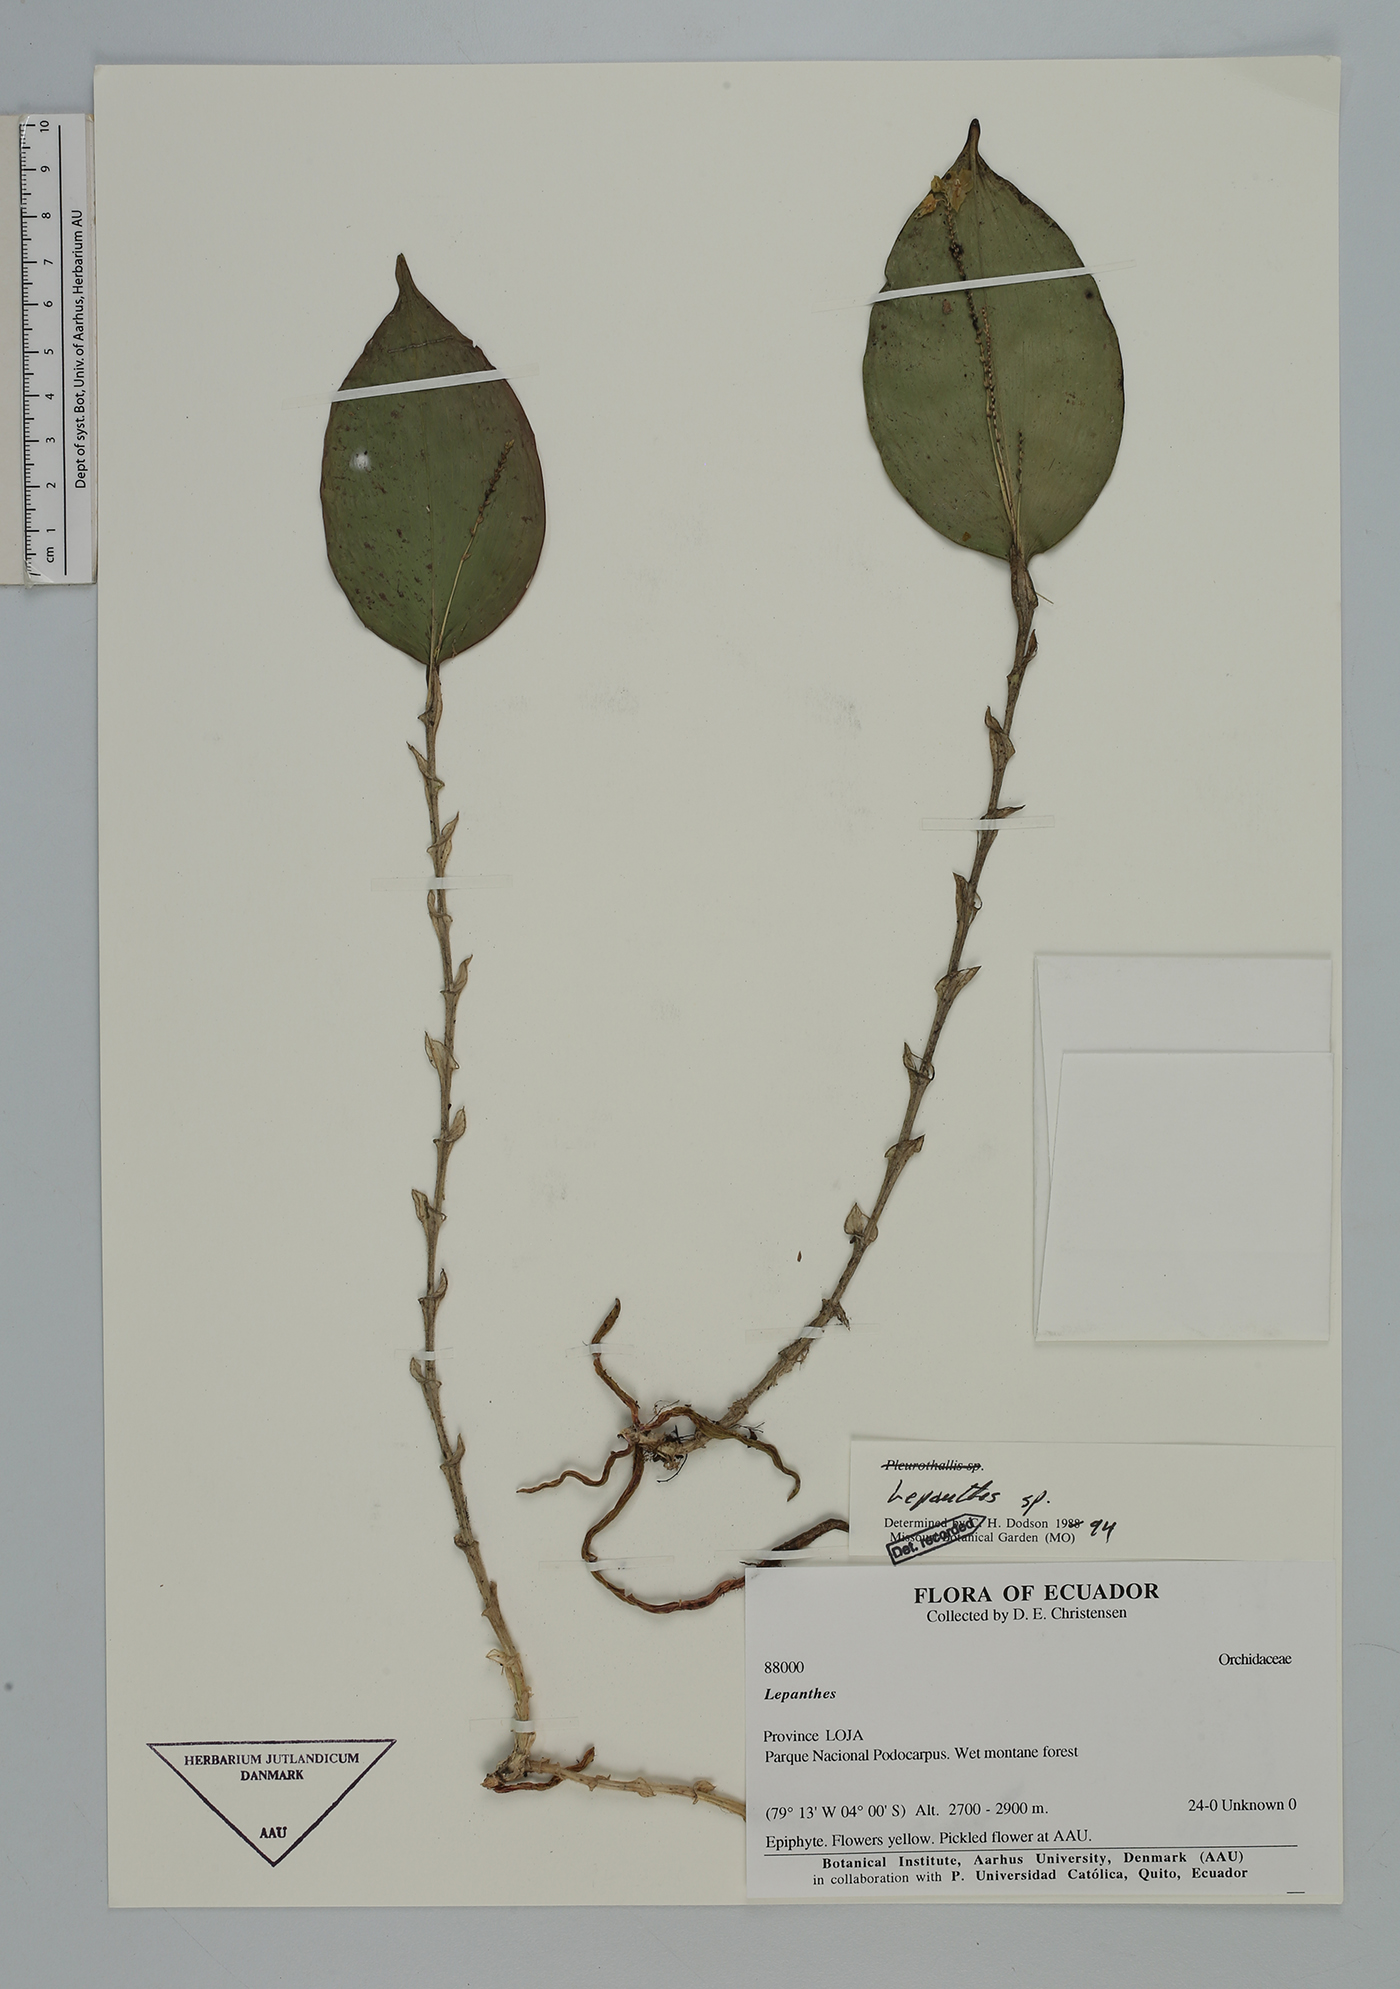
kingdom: Plantae
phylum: Tracheophyta
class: Liliopsida
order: Asparagales
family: Orchidaceae
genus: Lepanthes
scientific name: Lepanthes
